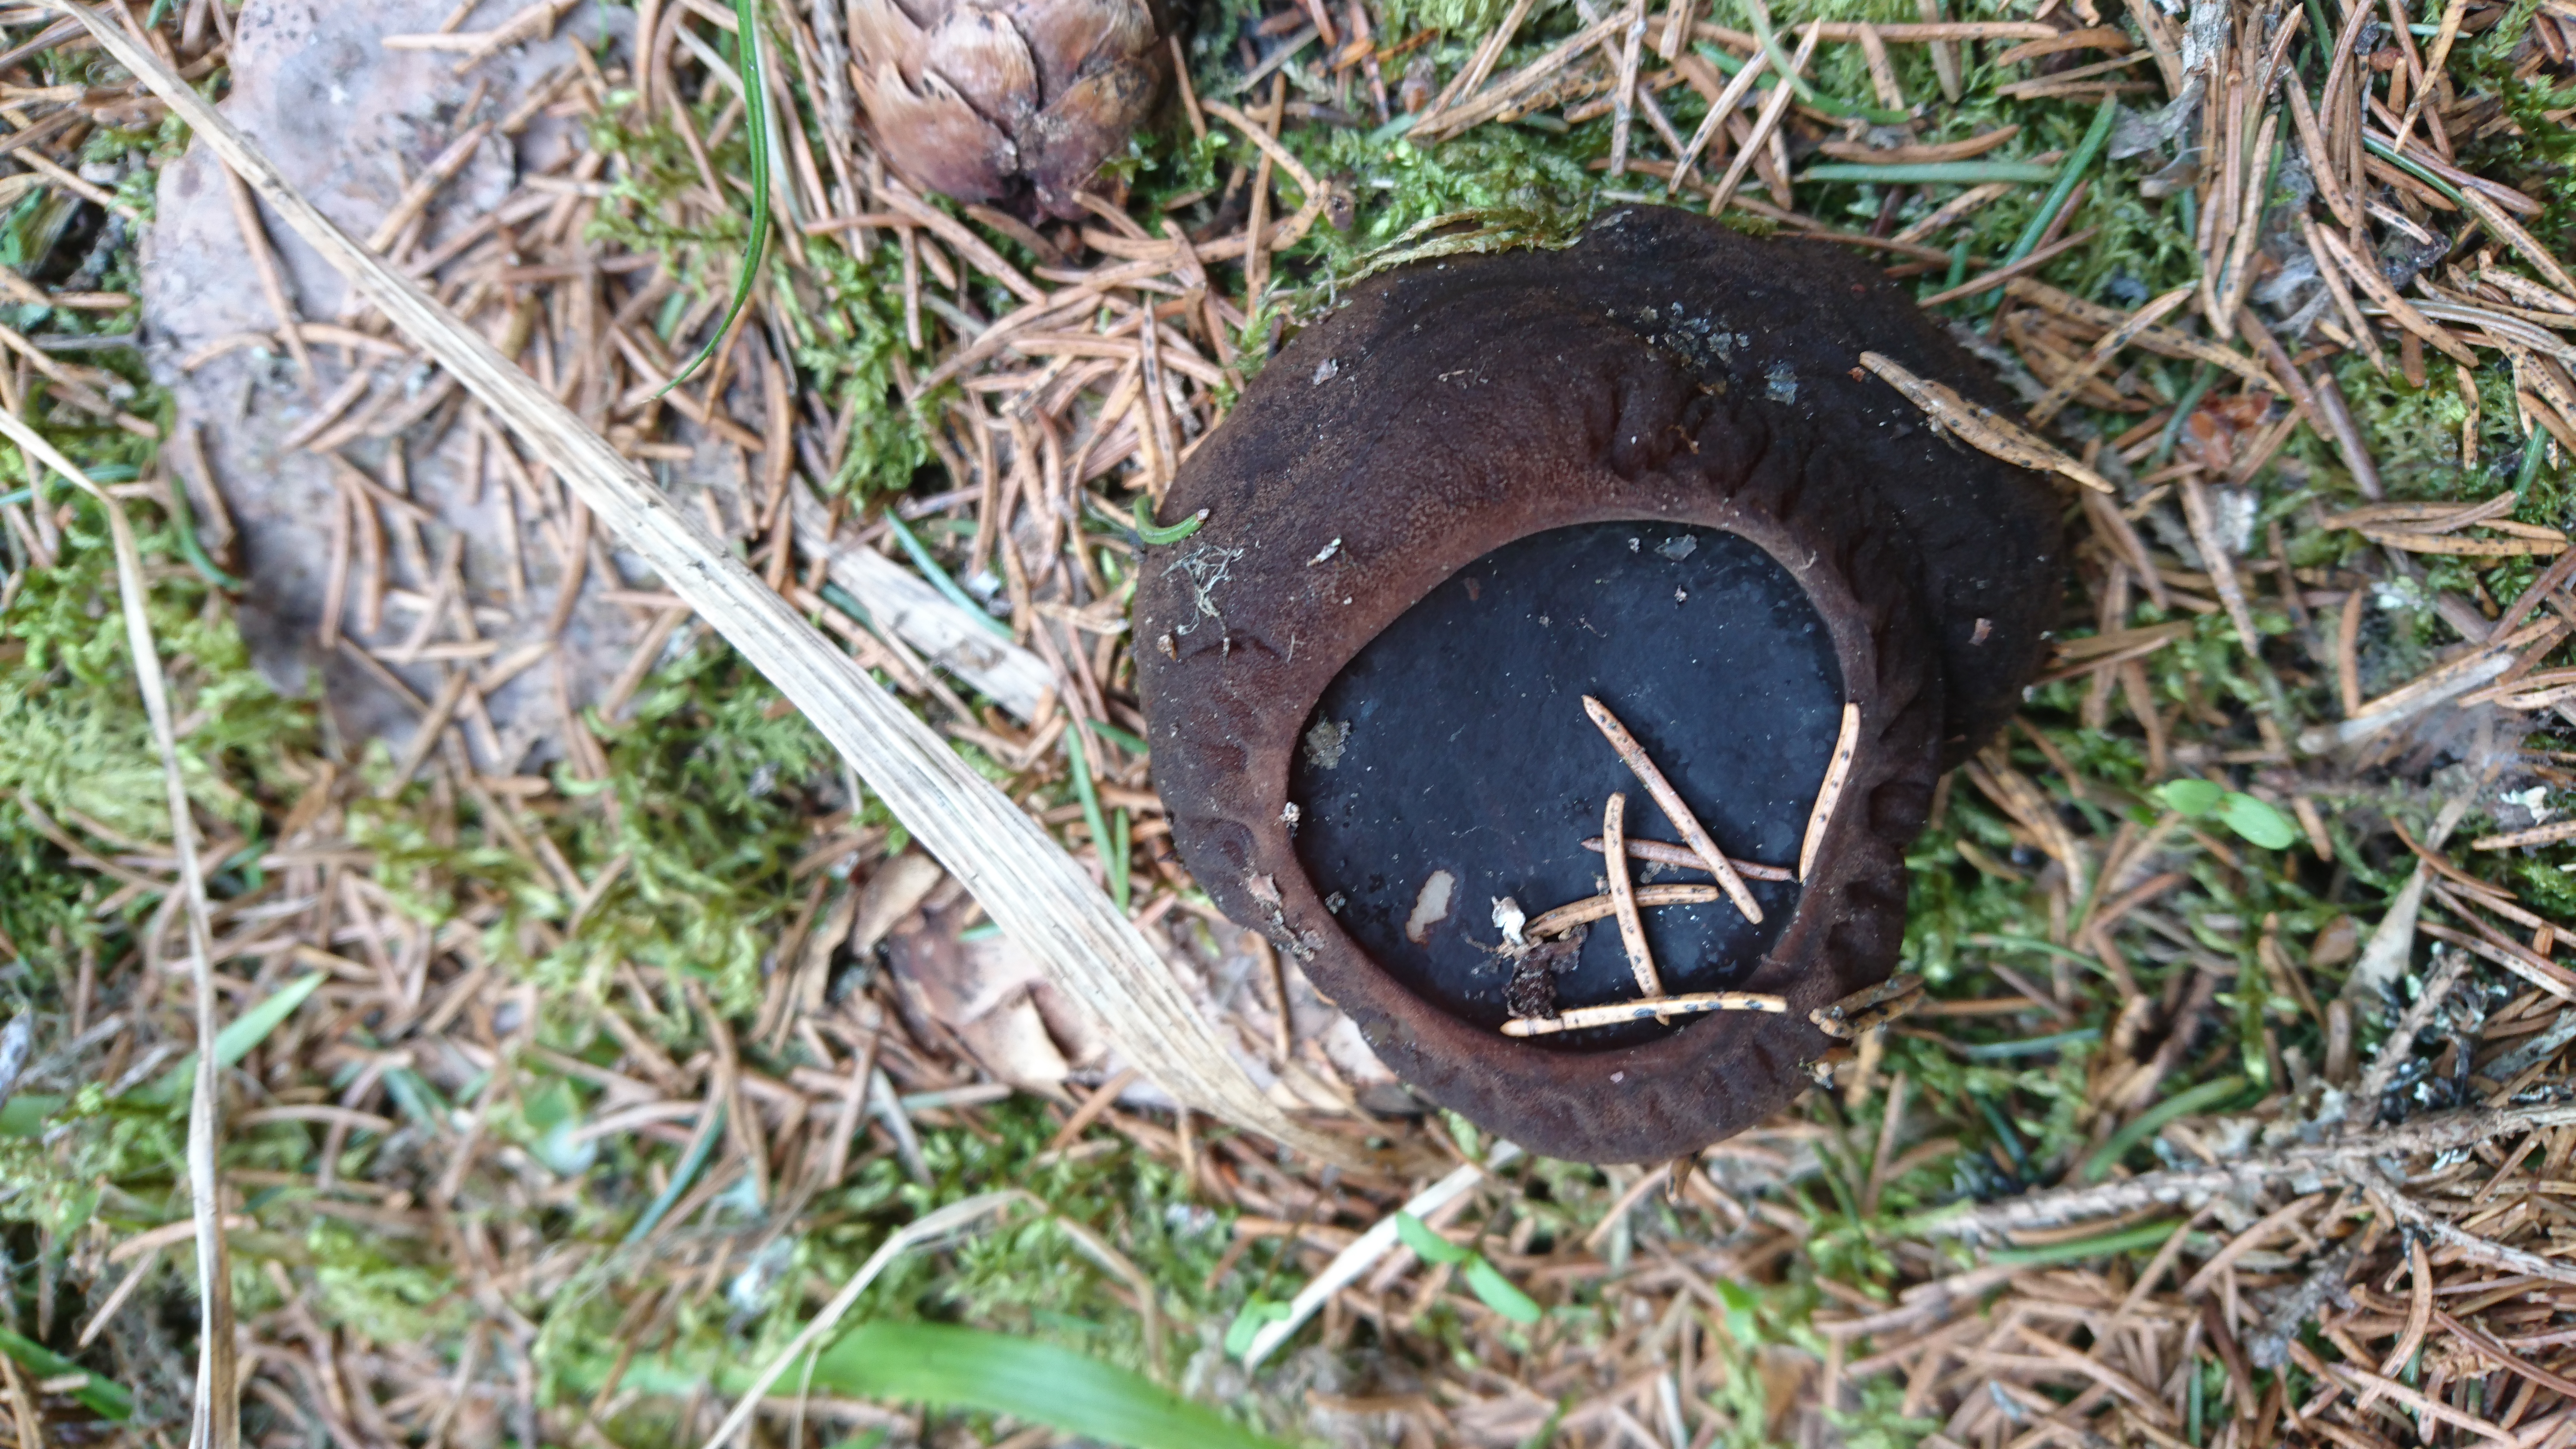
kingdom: Fungi
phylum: Ascomycota
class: Pezizomycetes
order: Pezizales
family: Sarcosomataceae
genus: Sarcosoma
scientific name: Sarcosoma globosum
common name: Charred-pancake cup
